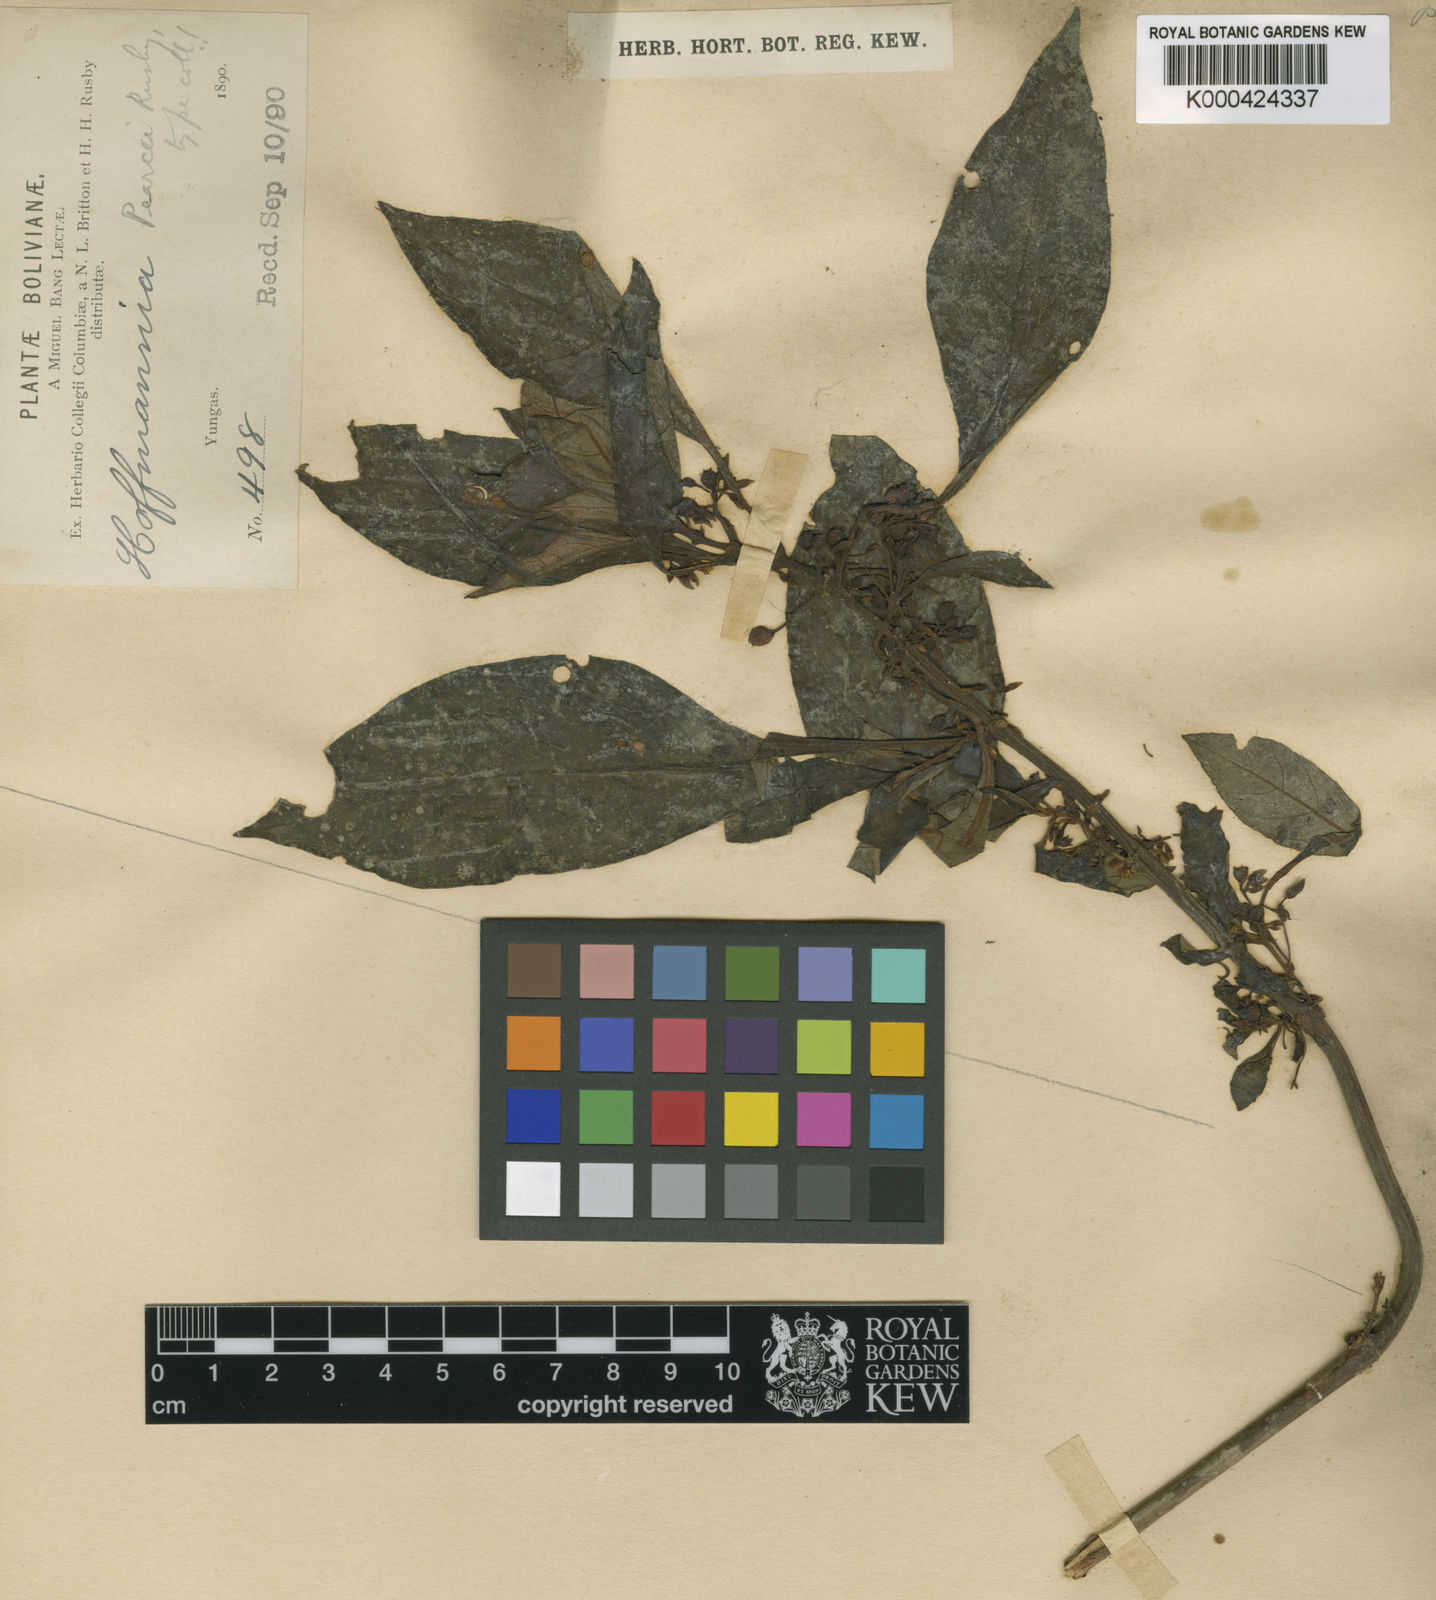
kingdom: Plantae
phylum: Tracheophyta
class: Magnoliopsida
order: Gentianales
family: Rubiaceae
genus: Hoffmannia
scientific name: Hoffmannia pearcei
